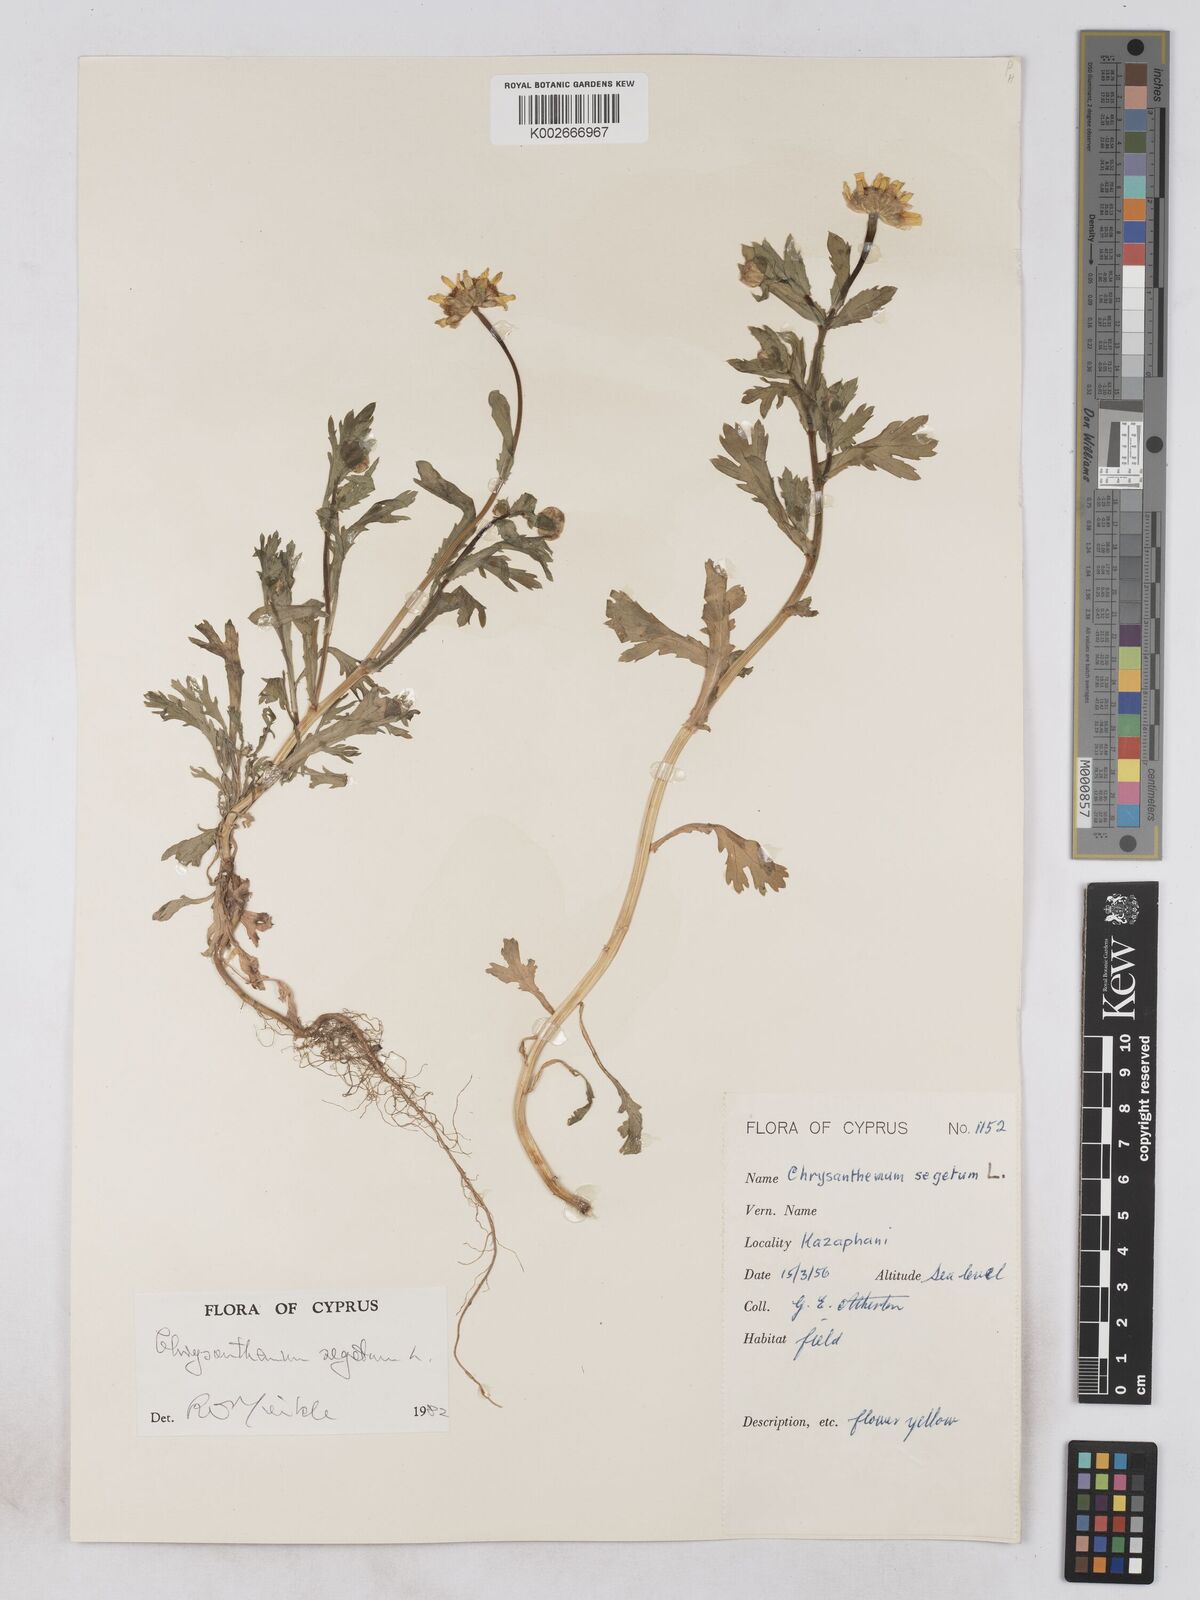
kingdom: Plantae
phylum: Tracheophyta
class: Magnoliopsida
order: Asterales
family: Asteraceae
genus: Glebionis
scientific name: Glebionis segetum
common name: Corndaisy
